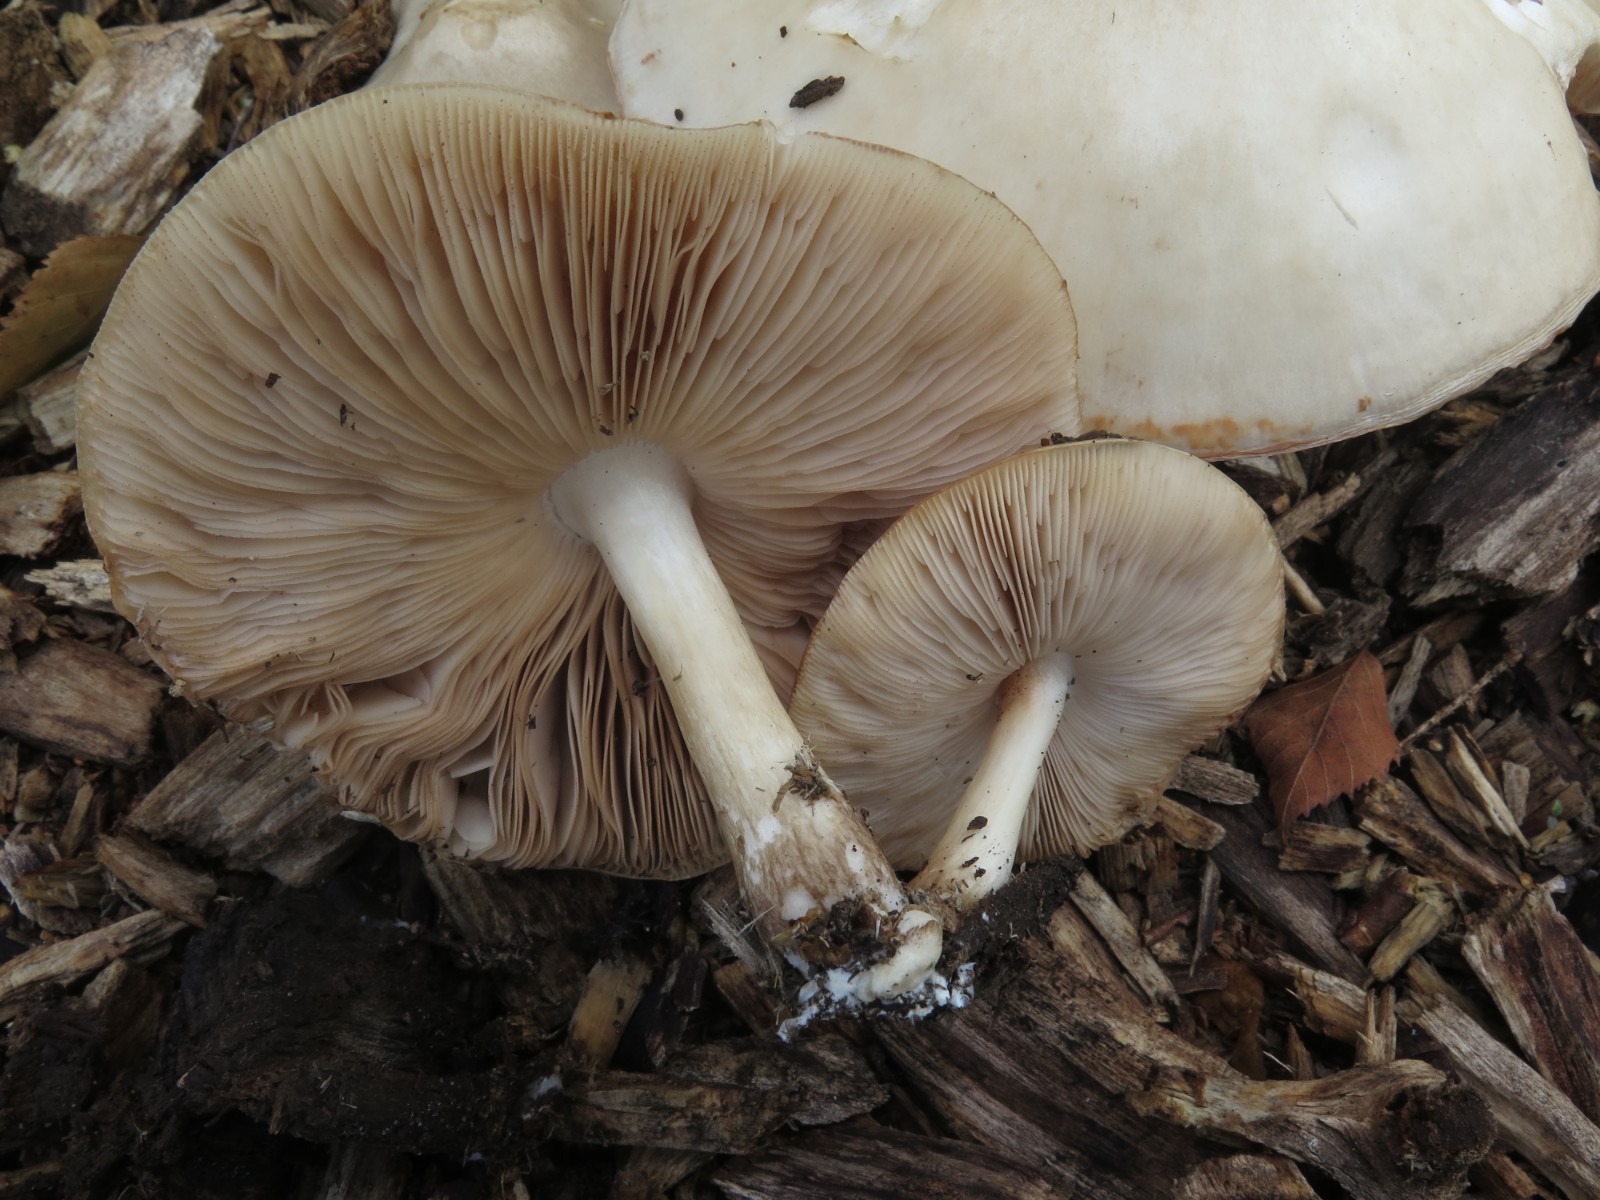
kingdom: Fungi
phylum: Basidiomycota
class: Agaricomycetes
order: Agaricales
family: Pluteaceae
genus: Pluteus
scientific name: Pluteus petasatus
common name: savsmulds-skærmhat
